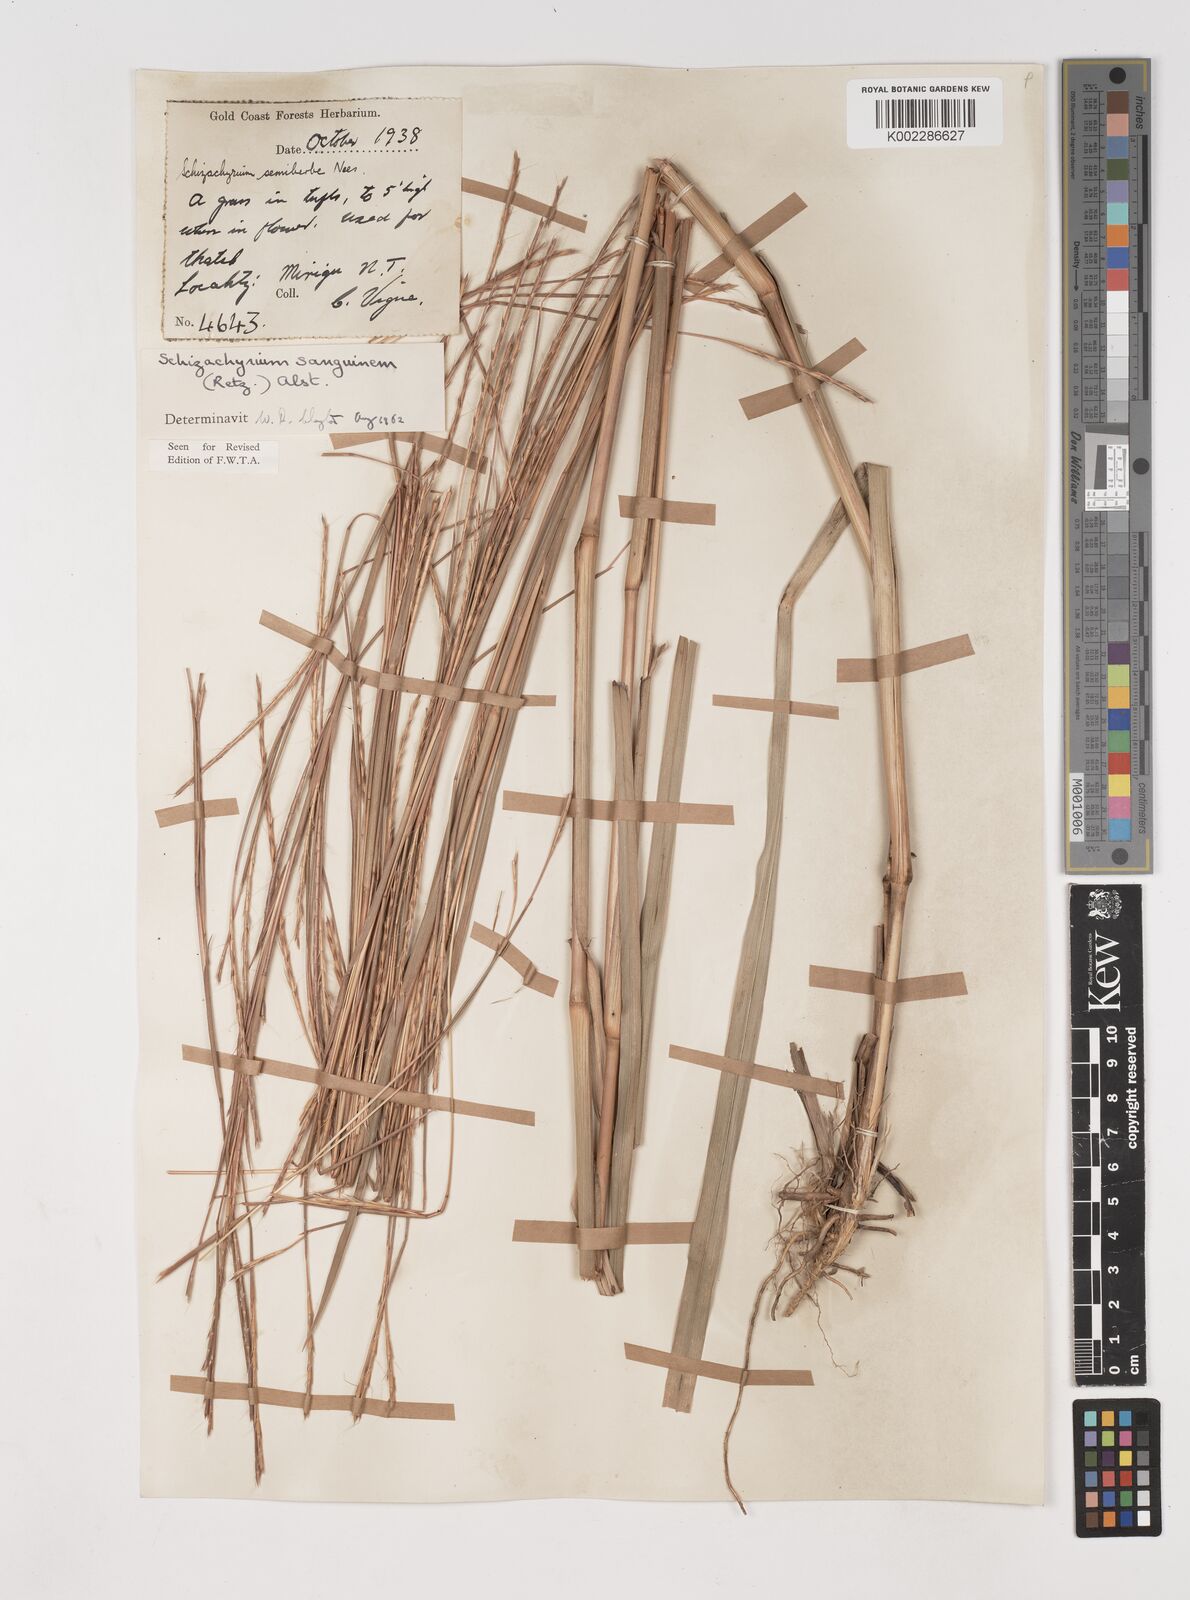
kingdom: Plantae
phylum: Tracheophyta
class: Liliopsida
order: Poales
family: Poaceae
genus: Schizachyrium
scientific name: Schizachyrium sanguineum
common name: Crimson bluestem
